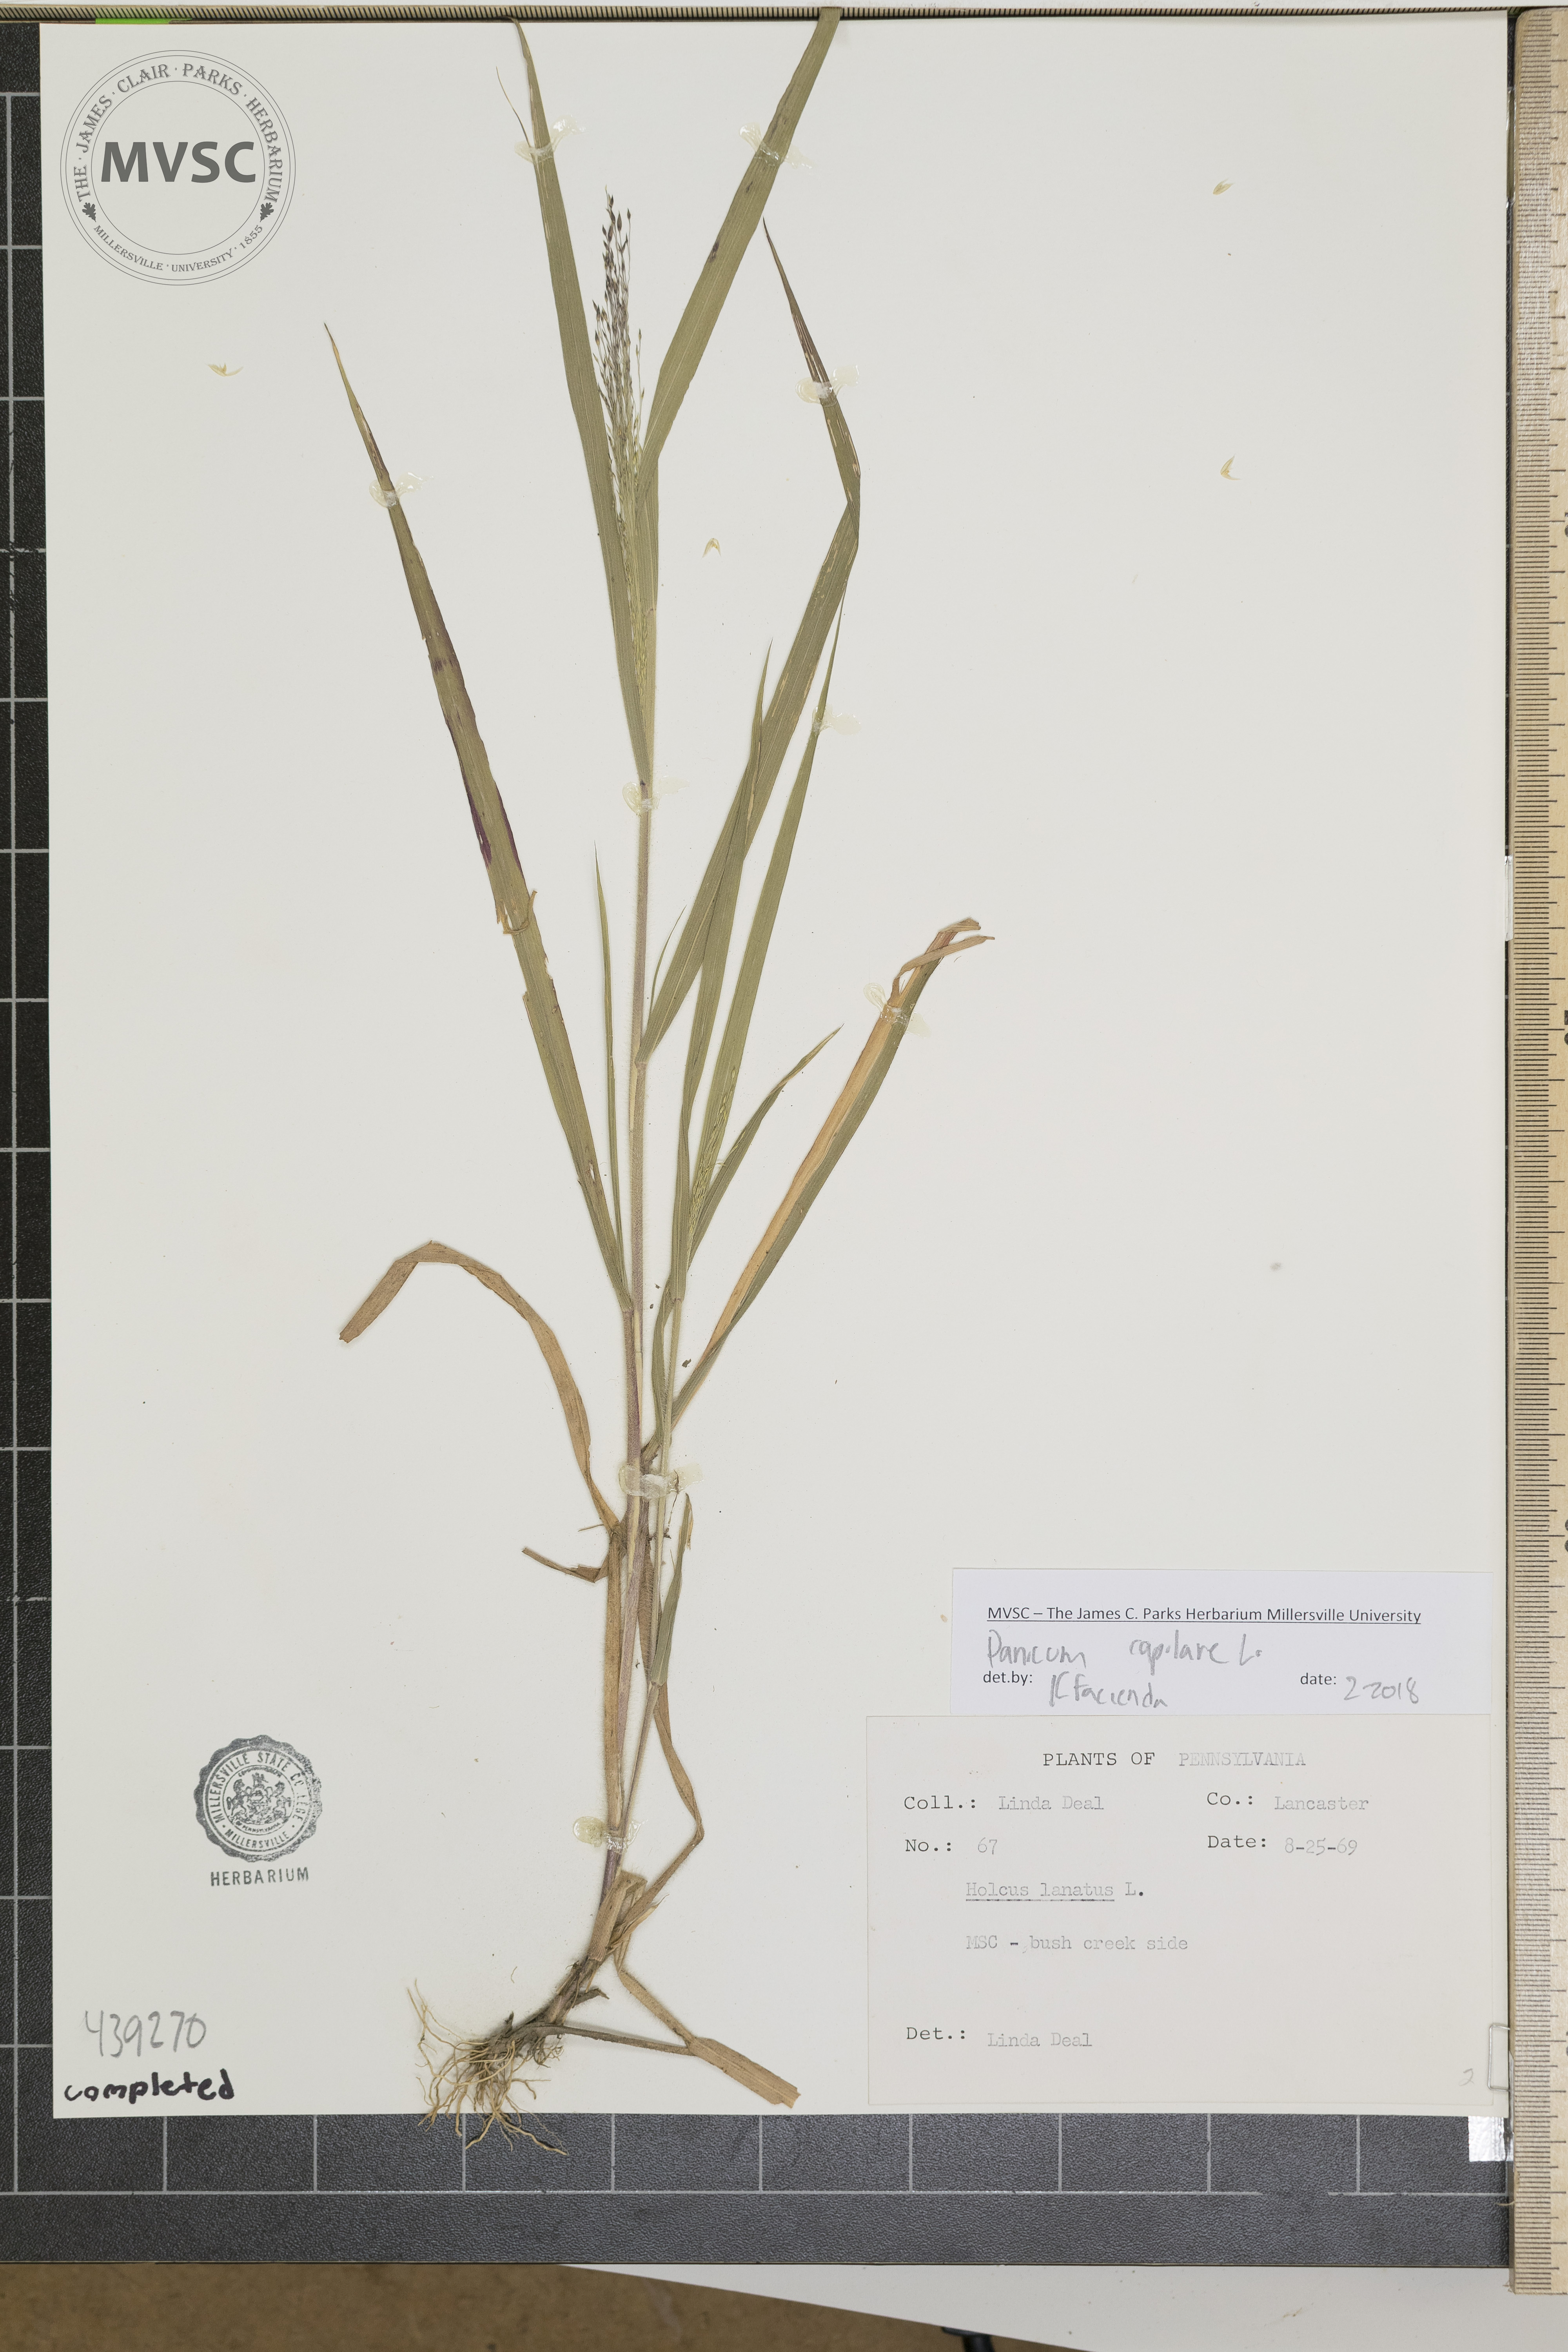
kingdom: Plantae
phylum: Tracheophyta
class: Liliopsida
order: Poales
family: Poaceae
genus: Panicum
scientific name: Panicum capillare
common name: Witch-grass
